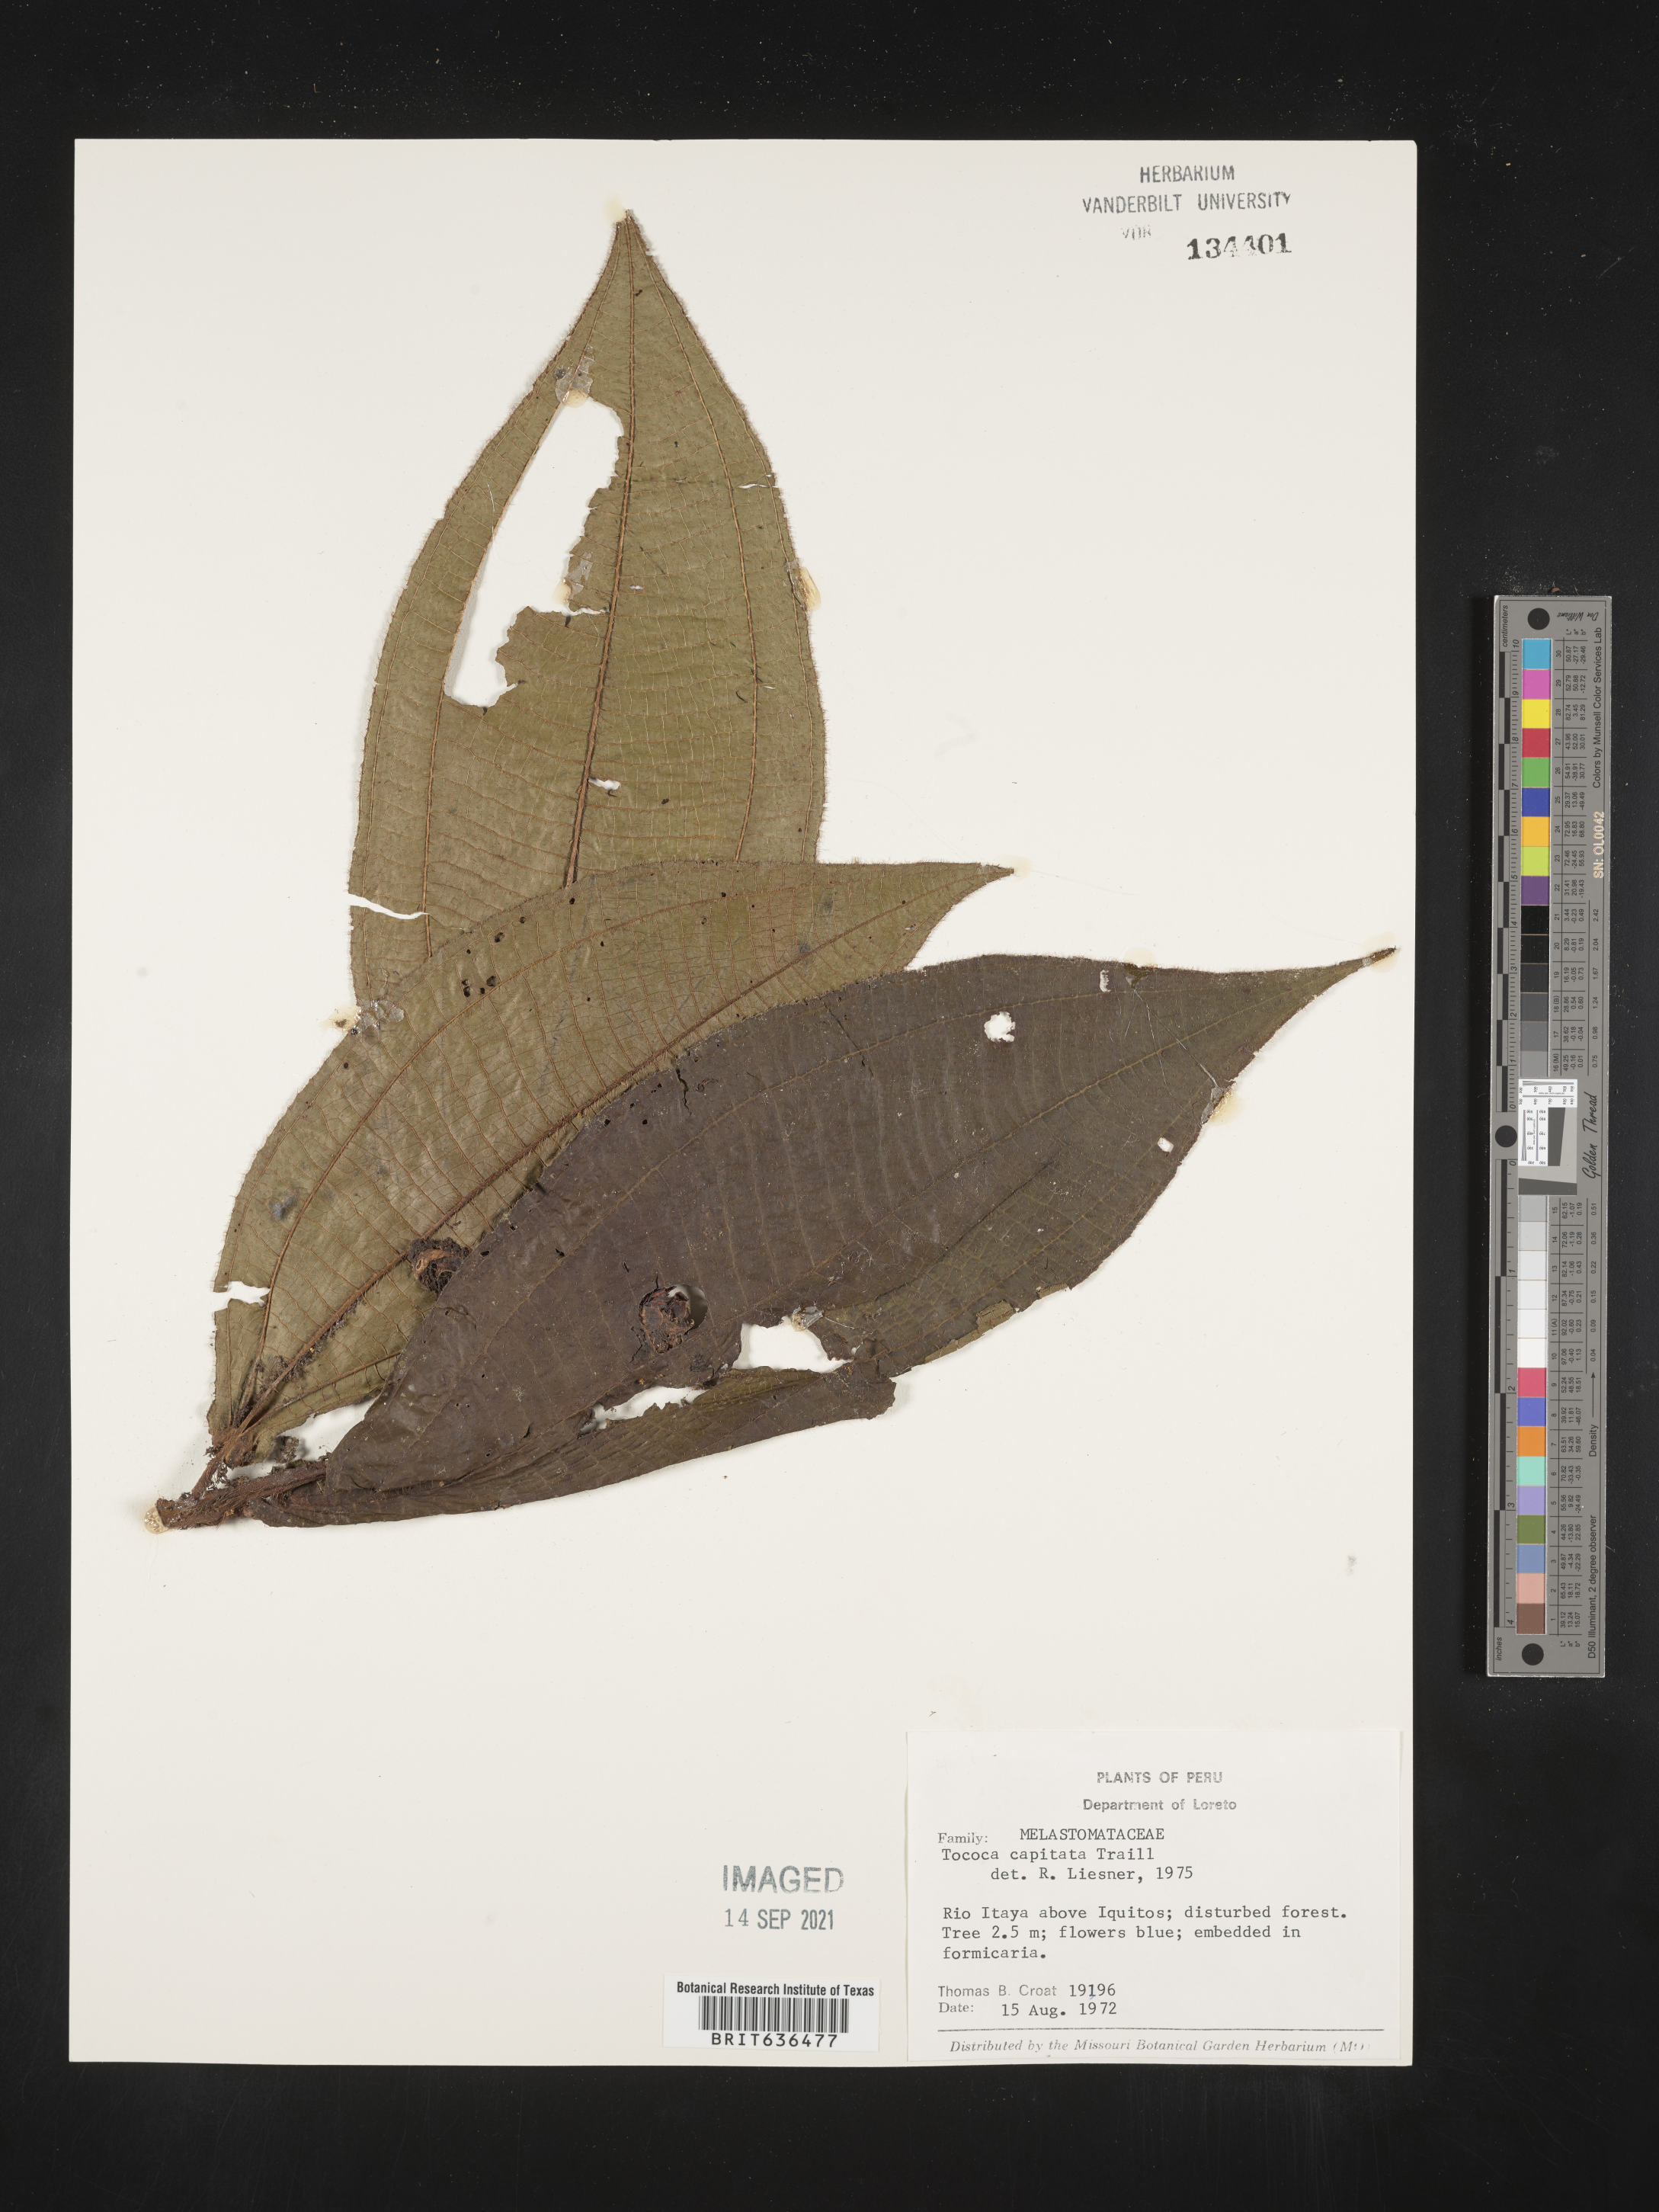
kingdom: Plantae
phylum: Tracheophyta
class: Magnoliopsida
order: Myrtales
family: Melastomataceae
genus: Tibouchina
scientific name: Tibouchina
